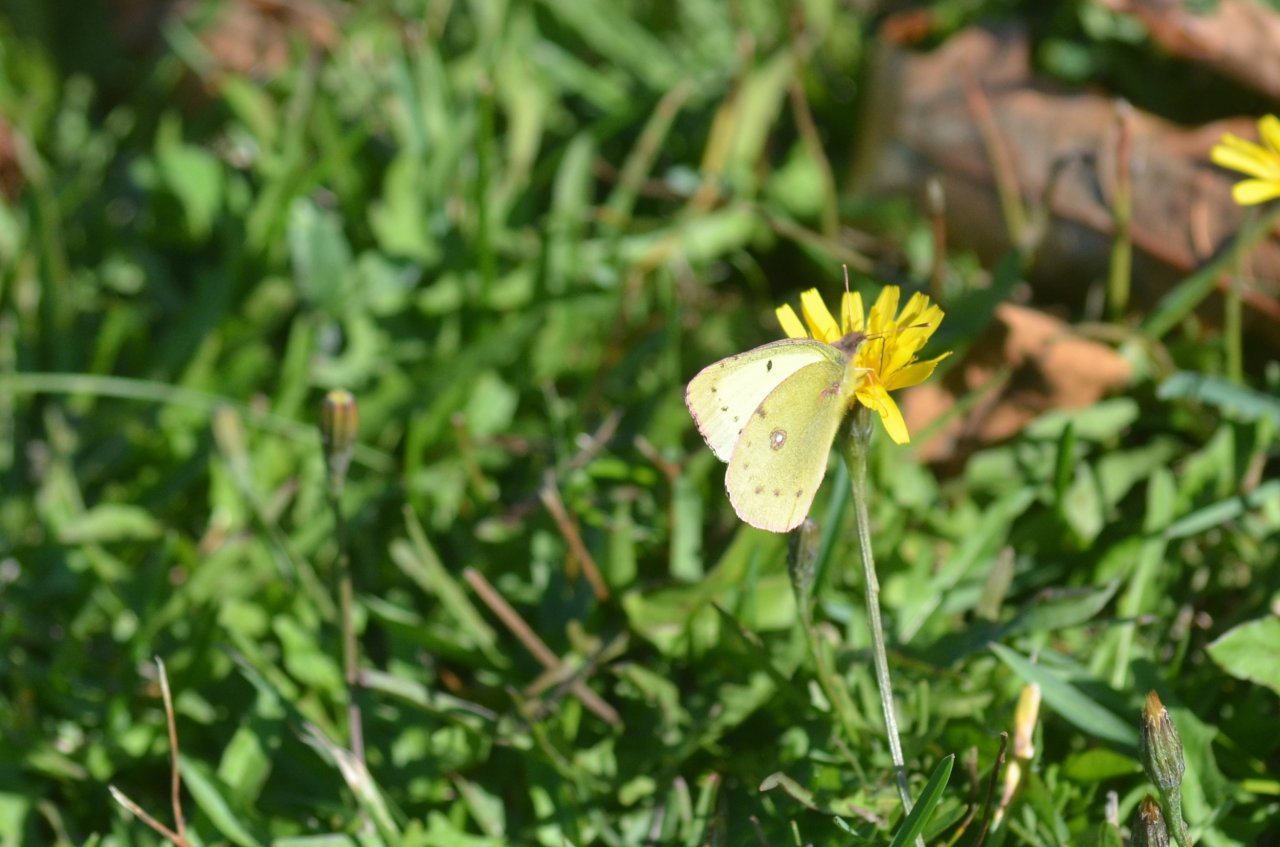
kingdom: Animalia
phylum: Arthropoda
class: Insecta
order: Lepidoptera
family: Pieridae
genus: Colias
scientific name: Colias philodice
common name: Clouded Sulphur
